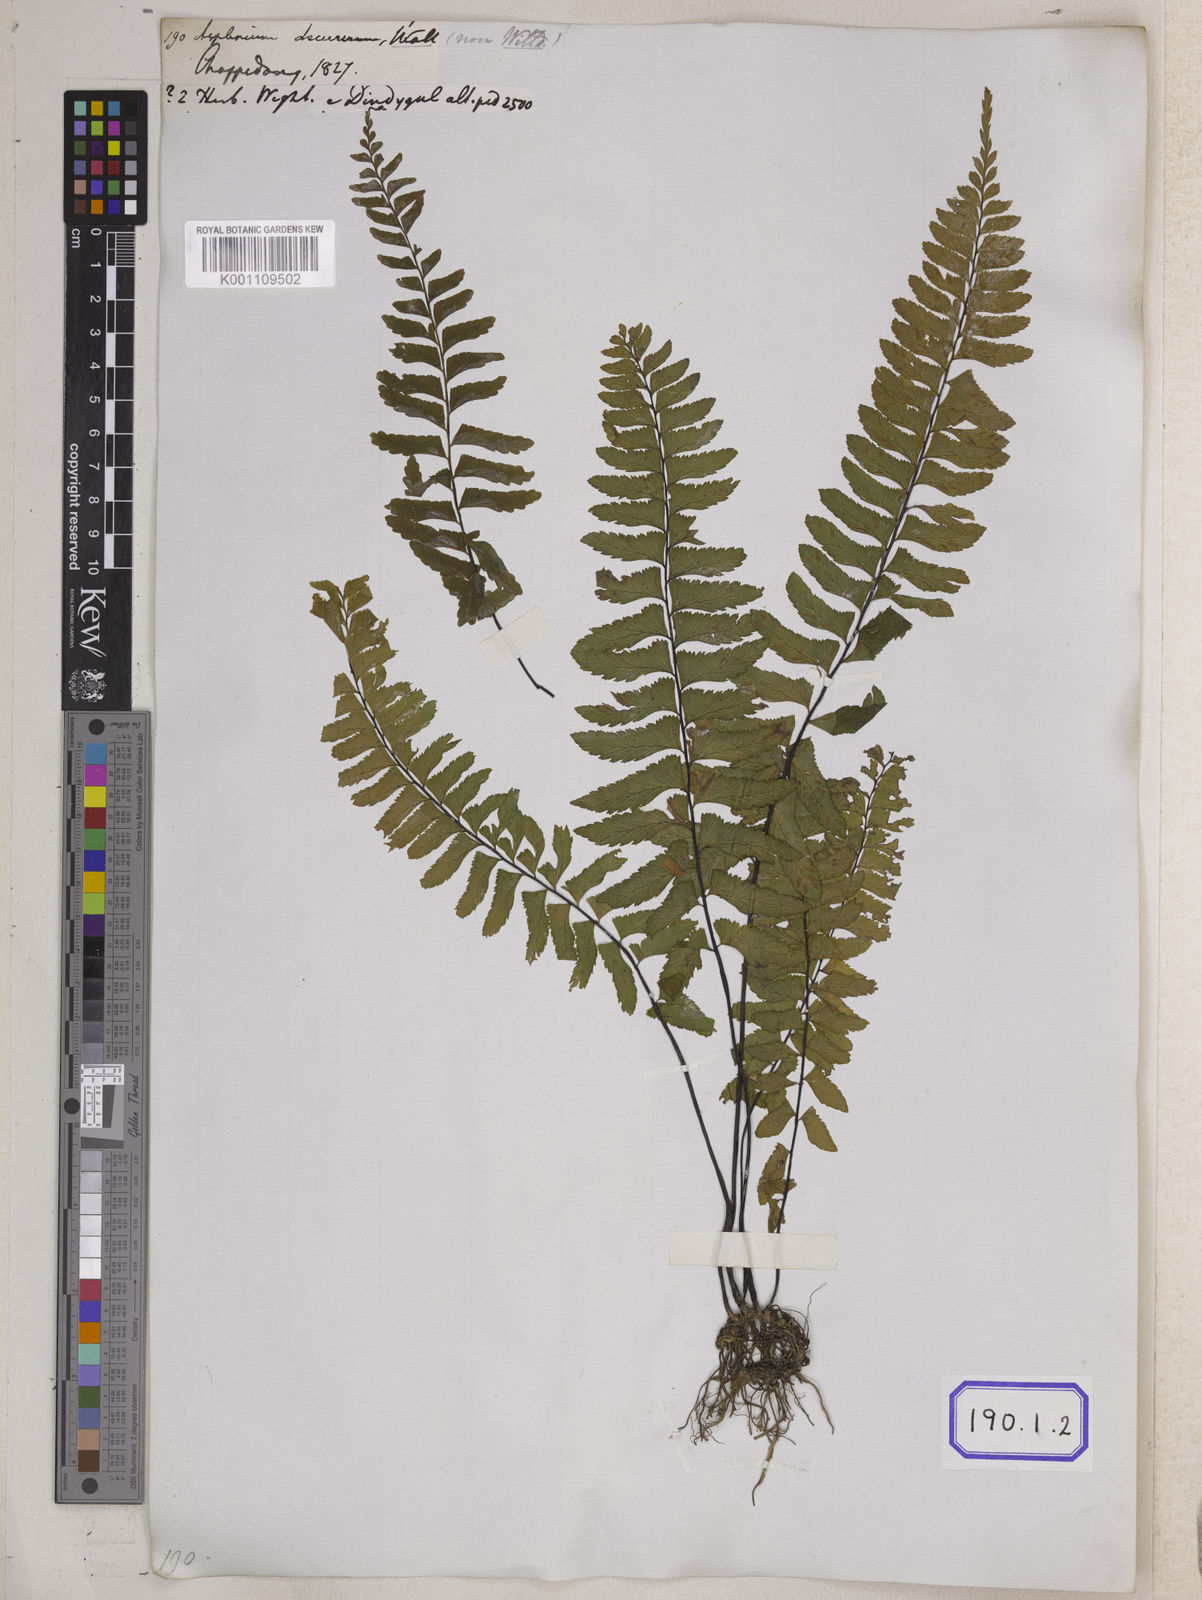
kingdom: Plantae
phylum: Tracheophyta
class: Polypodiopsida
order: Polypodiales
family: Aspleniaceae
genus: Hymenasplenium
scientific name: Hymenasplenium trapeziforme
